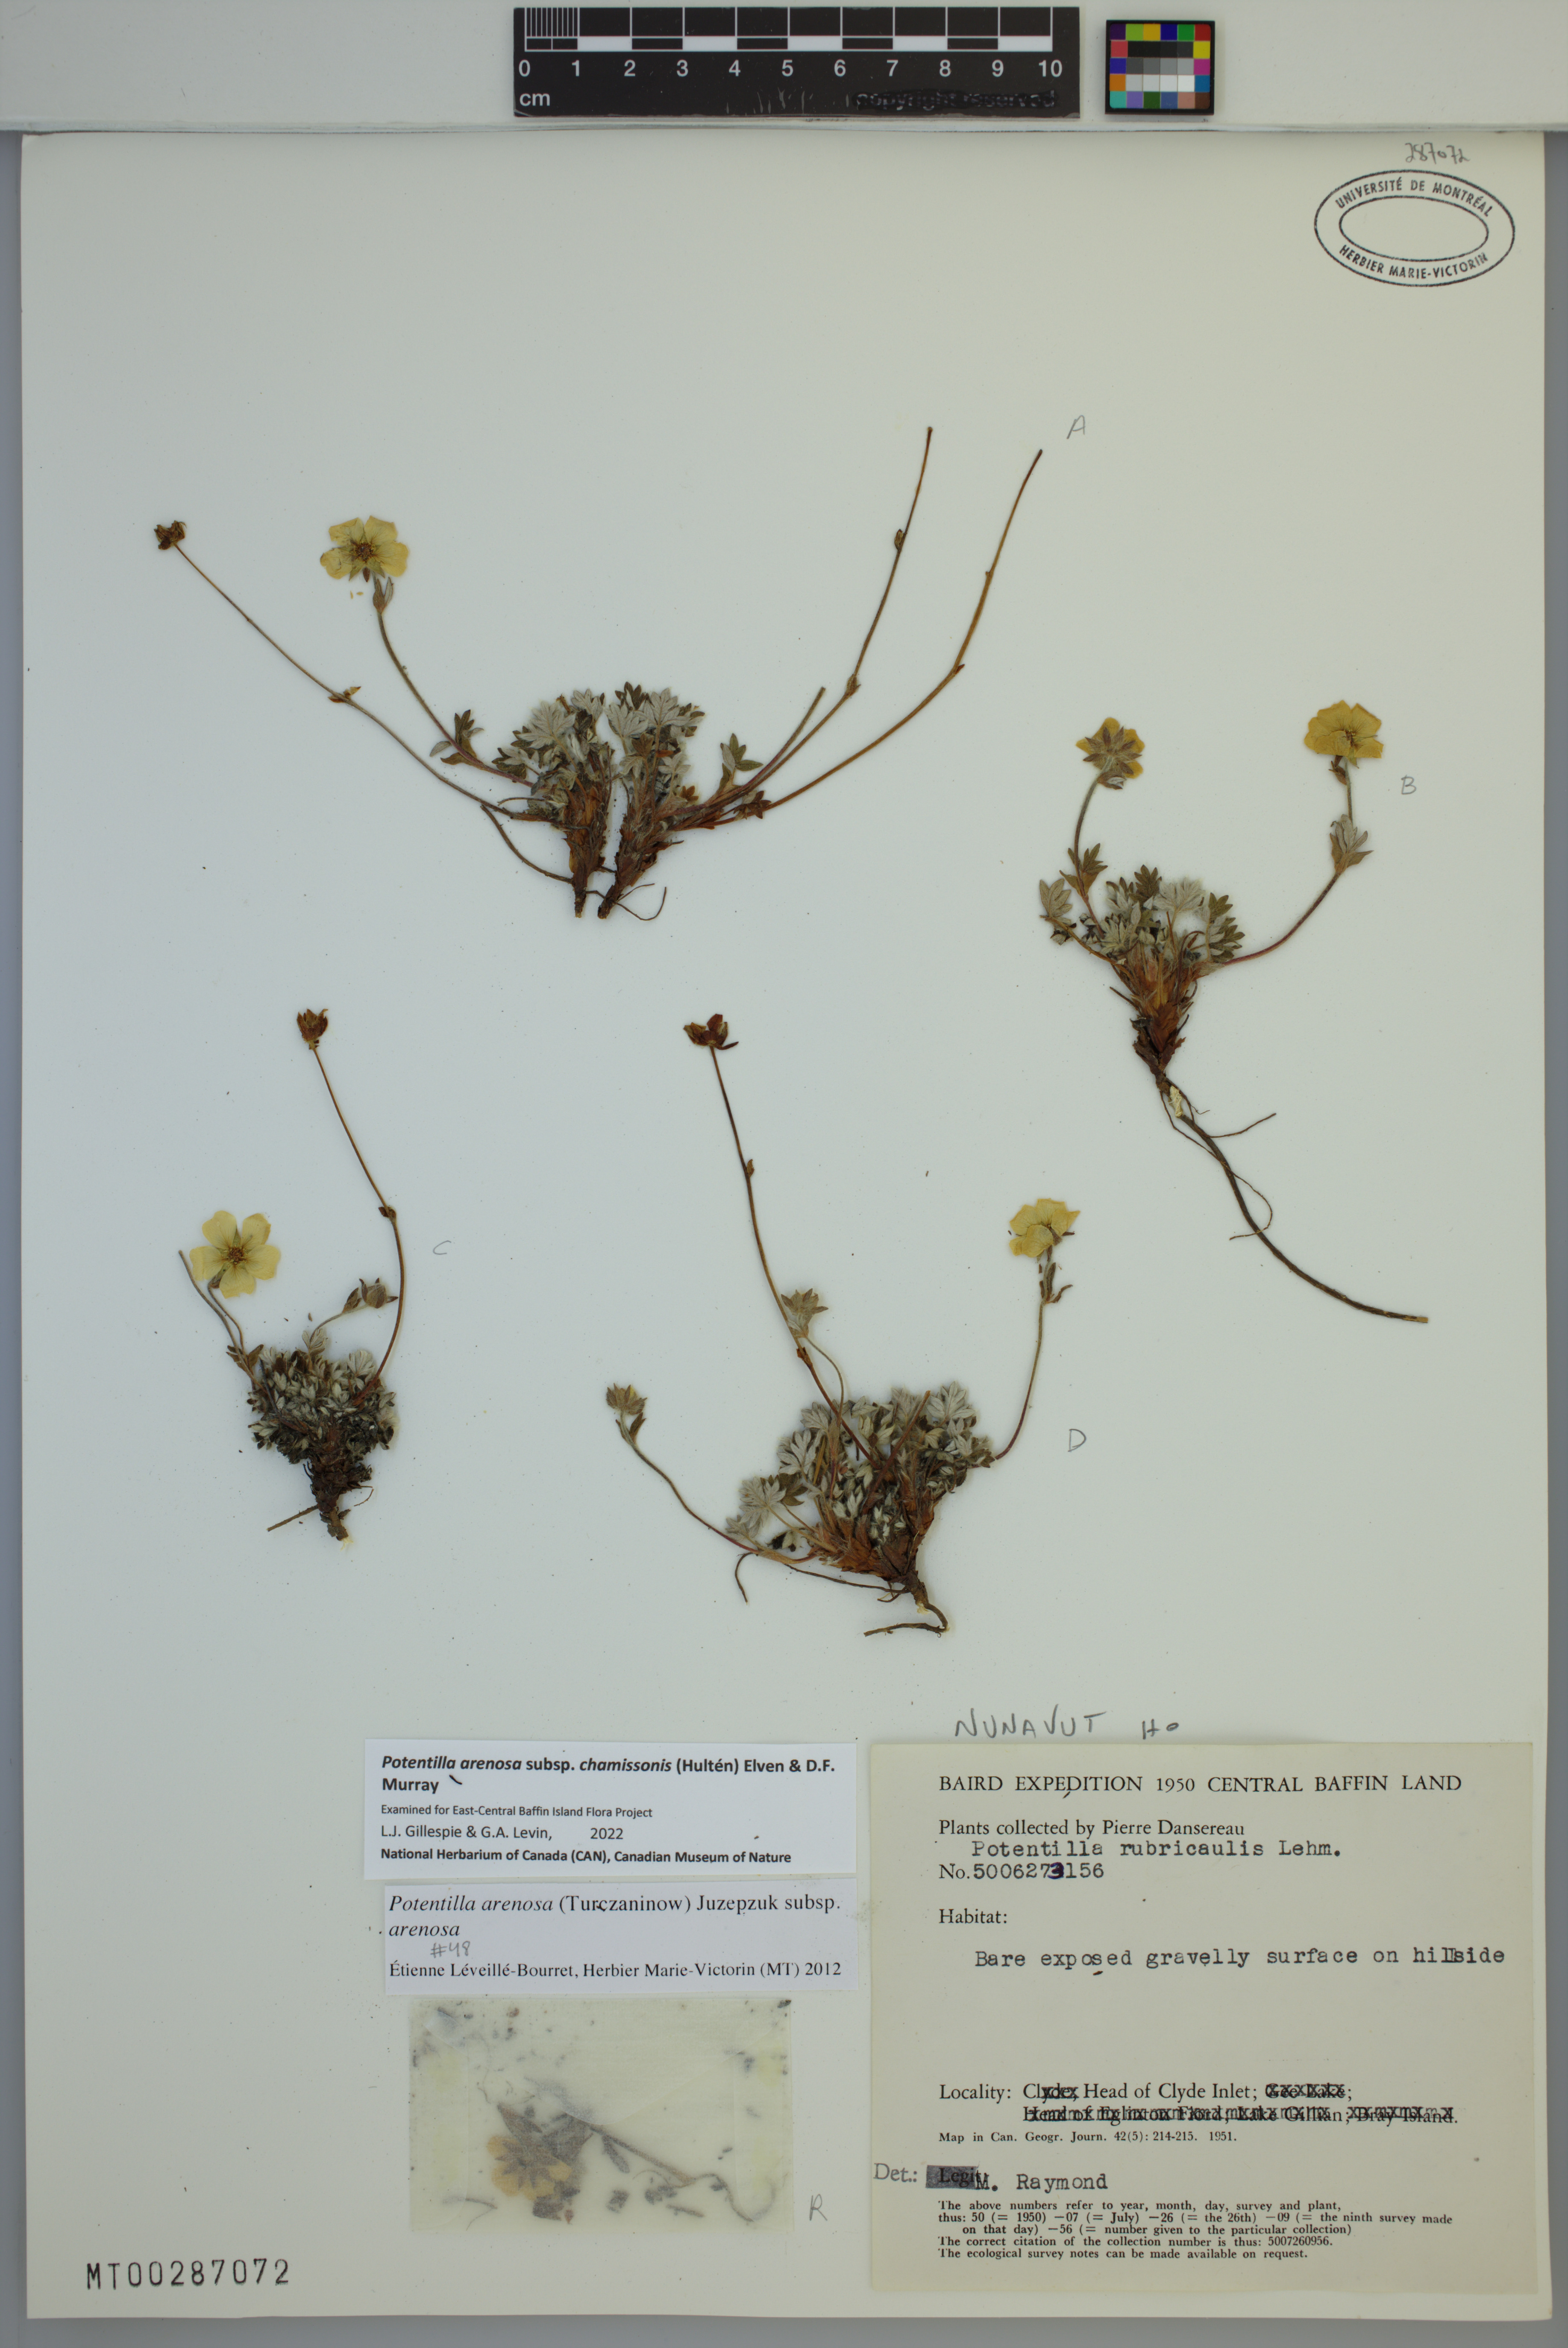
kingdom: Plantae
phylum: Tracheophyta
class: Magnoliopsida
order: Rosales
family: Rosaceae
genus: Potentilla
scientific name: Potentilla chamissonis
